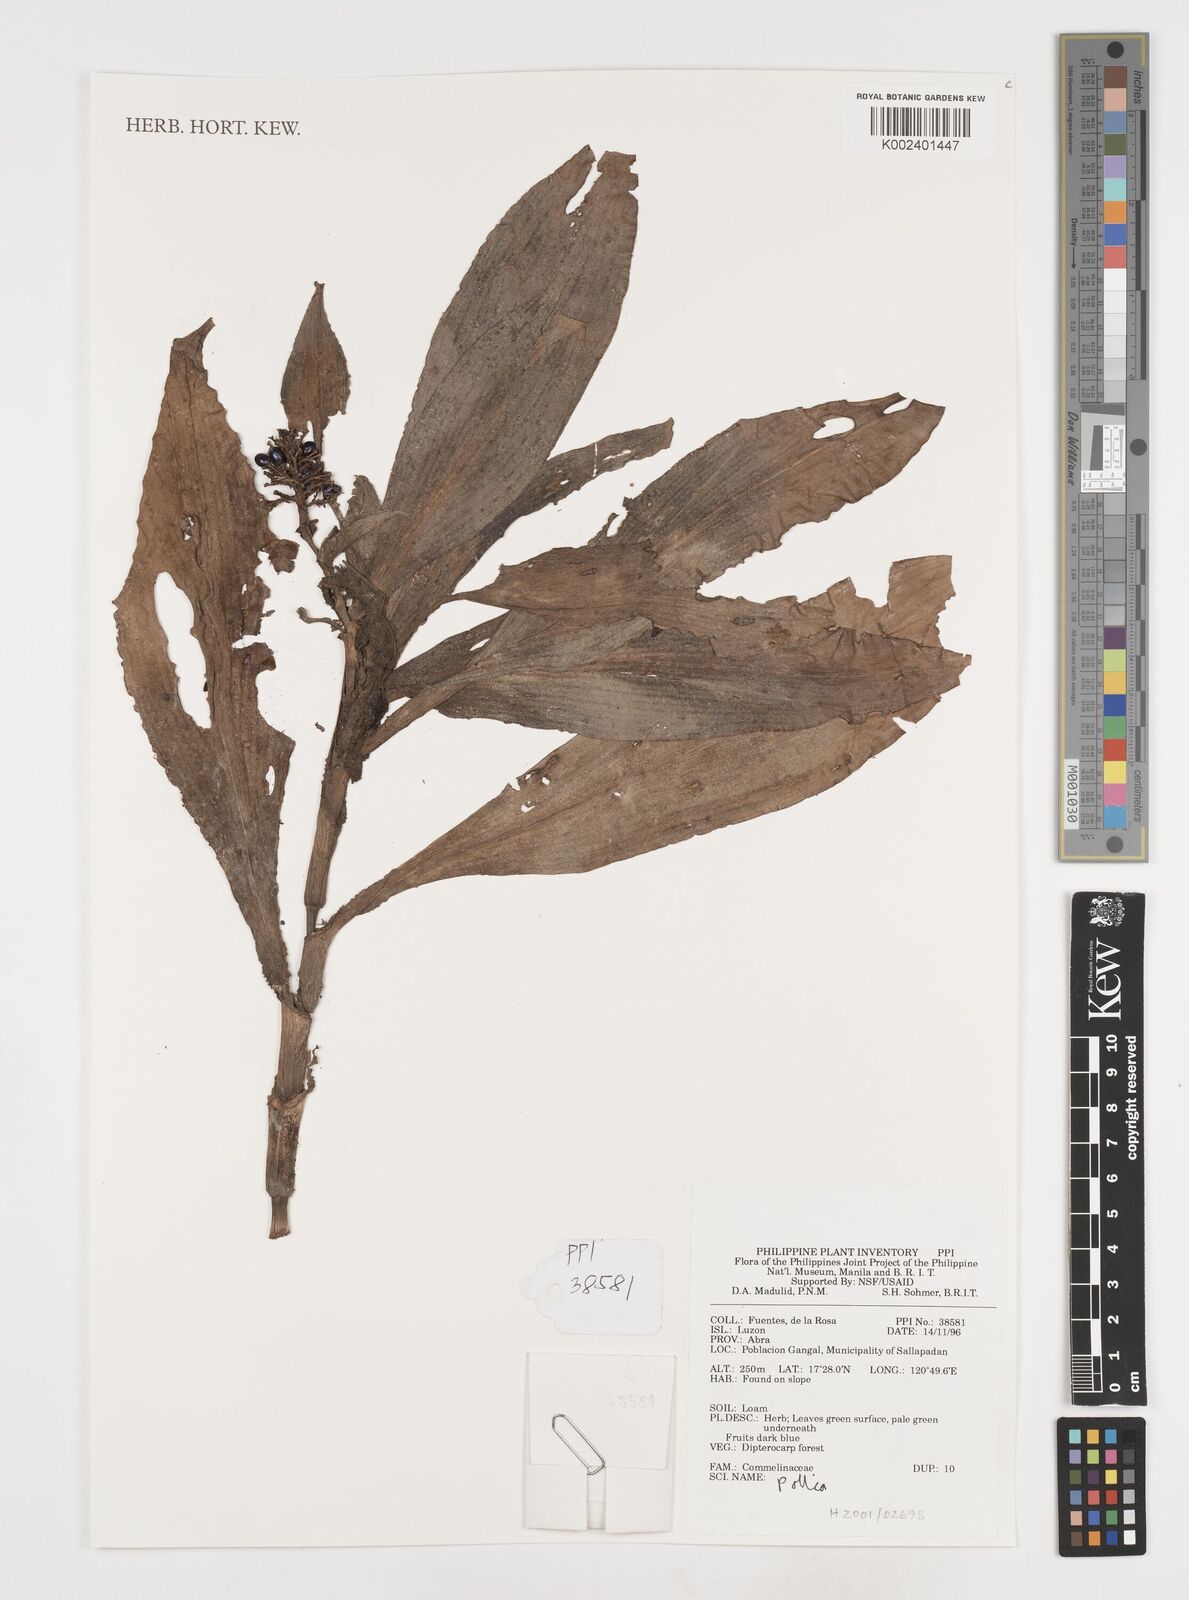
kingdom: Plantae
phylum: Tracheophyta
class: Liliopsida
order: Commelinales
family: Commelinaceae
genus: Pollia
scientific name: Pollia
